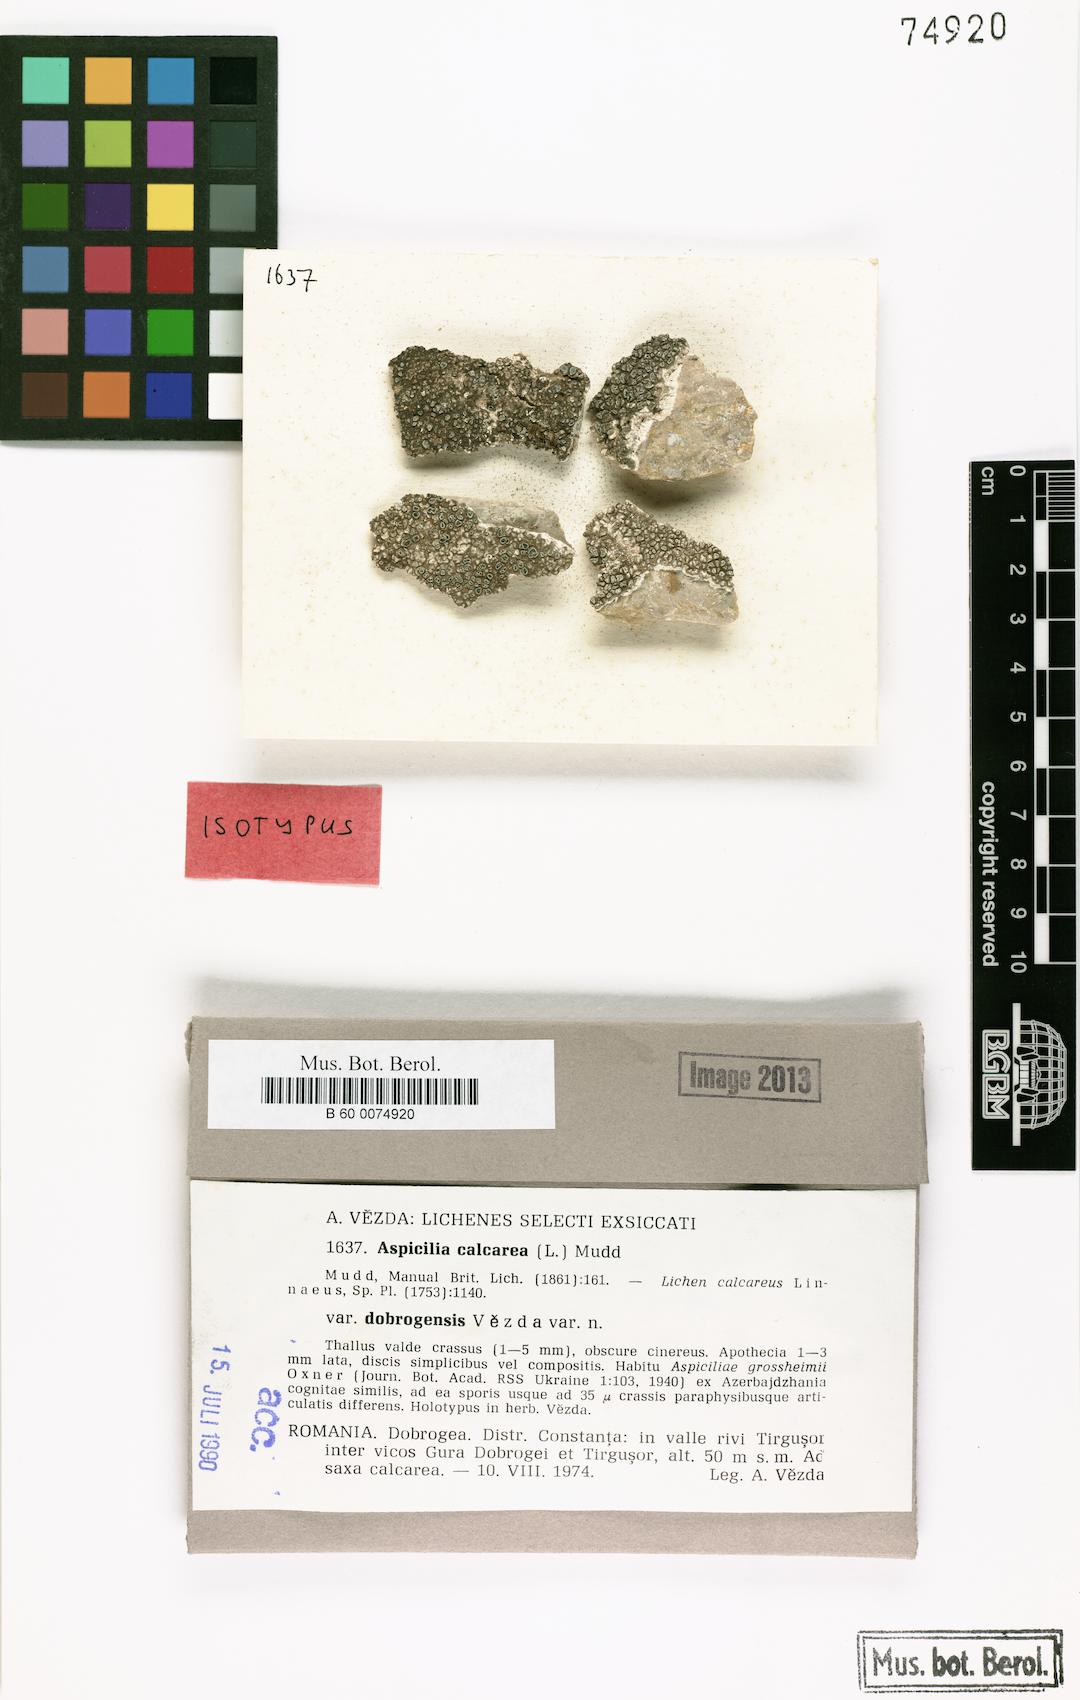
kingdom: Fungi
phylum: Ascomycota
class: Lecanoromycetes
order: Pertusariales
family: Megasporaceae
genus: Circinaria
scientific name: Circinaria calcarea
